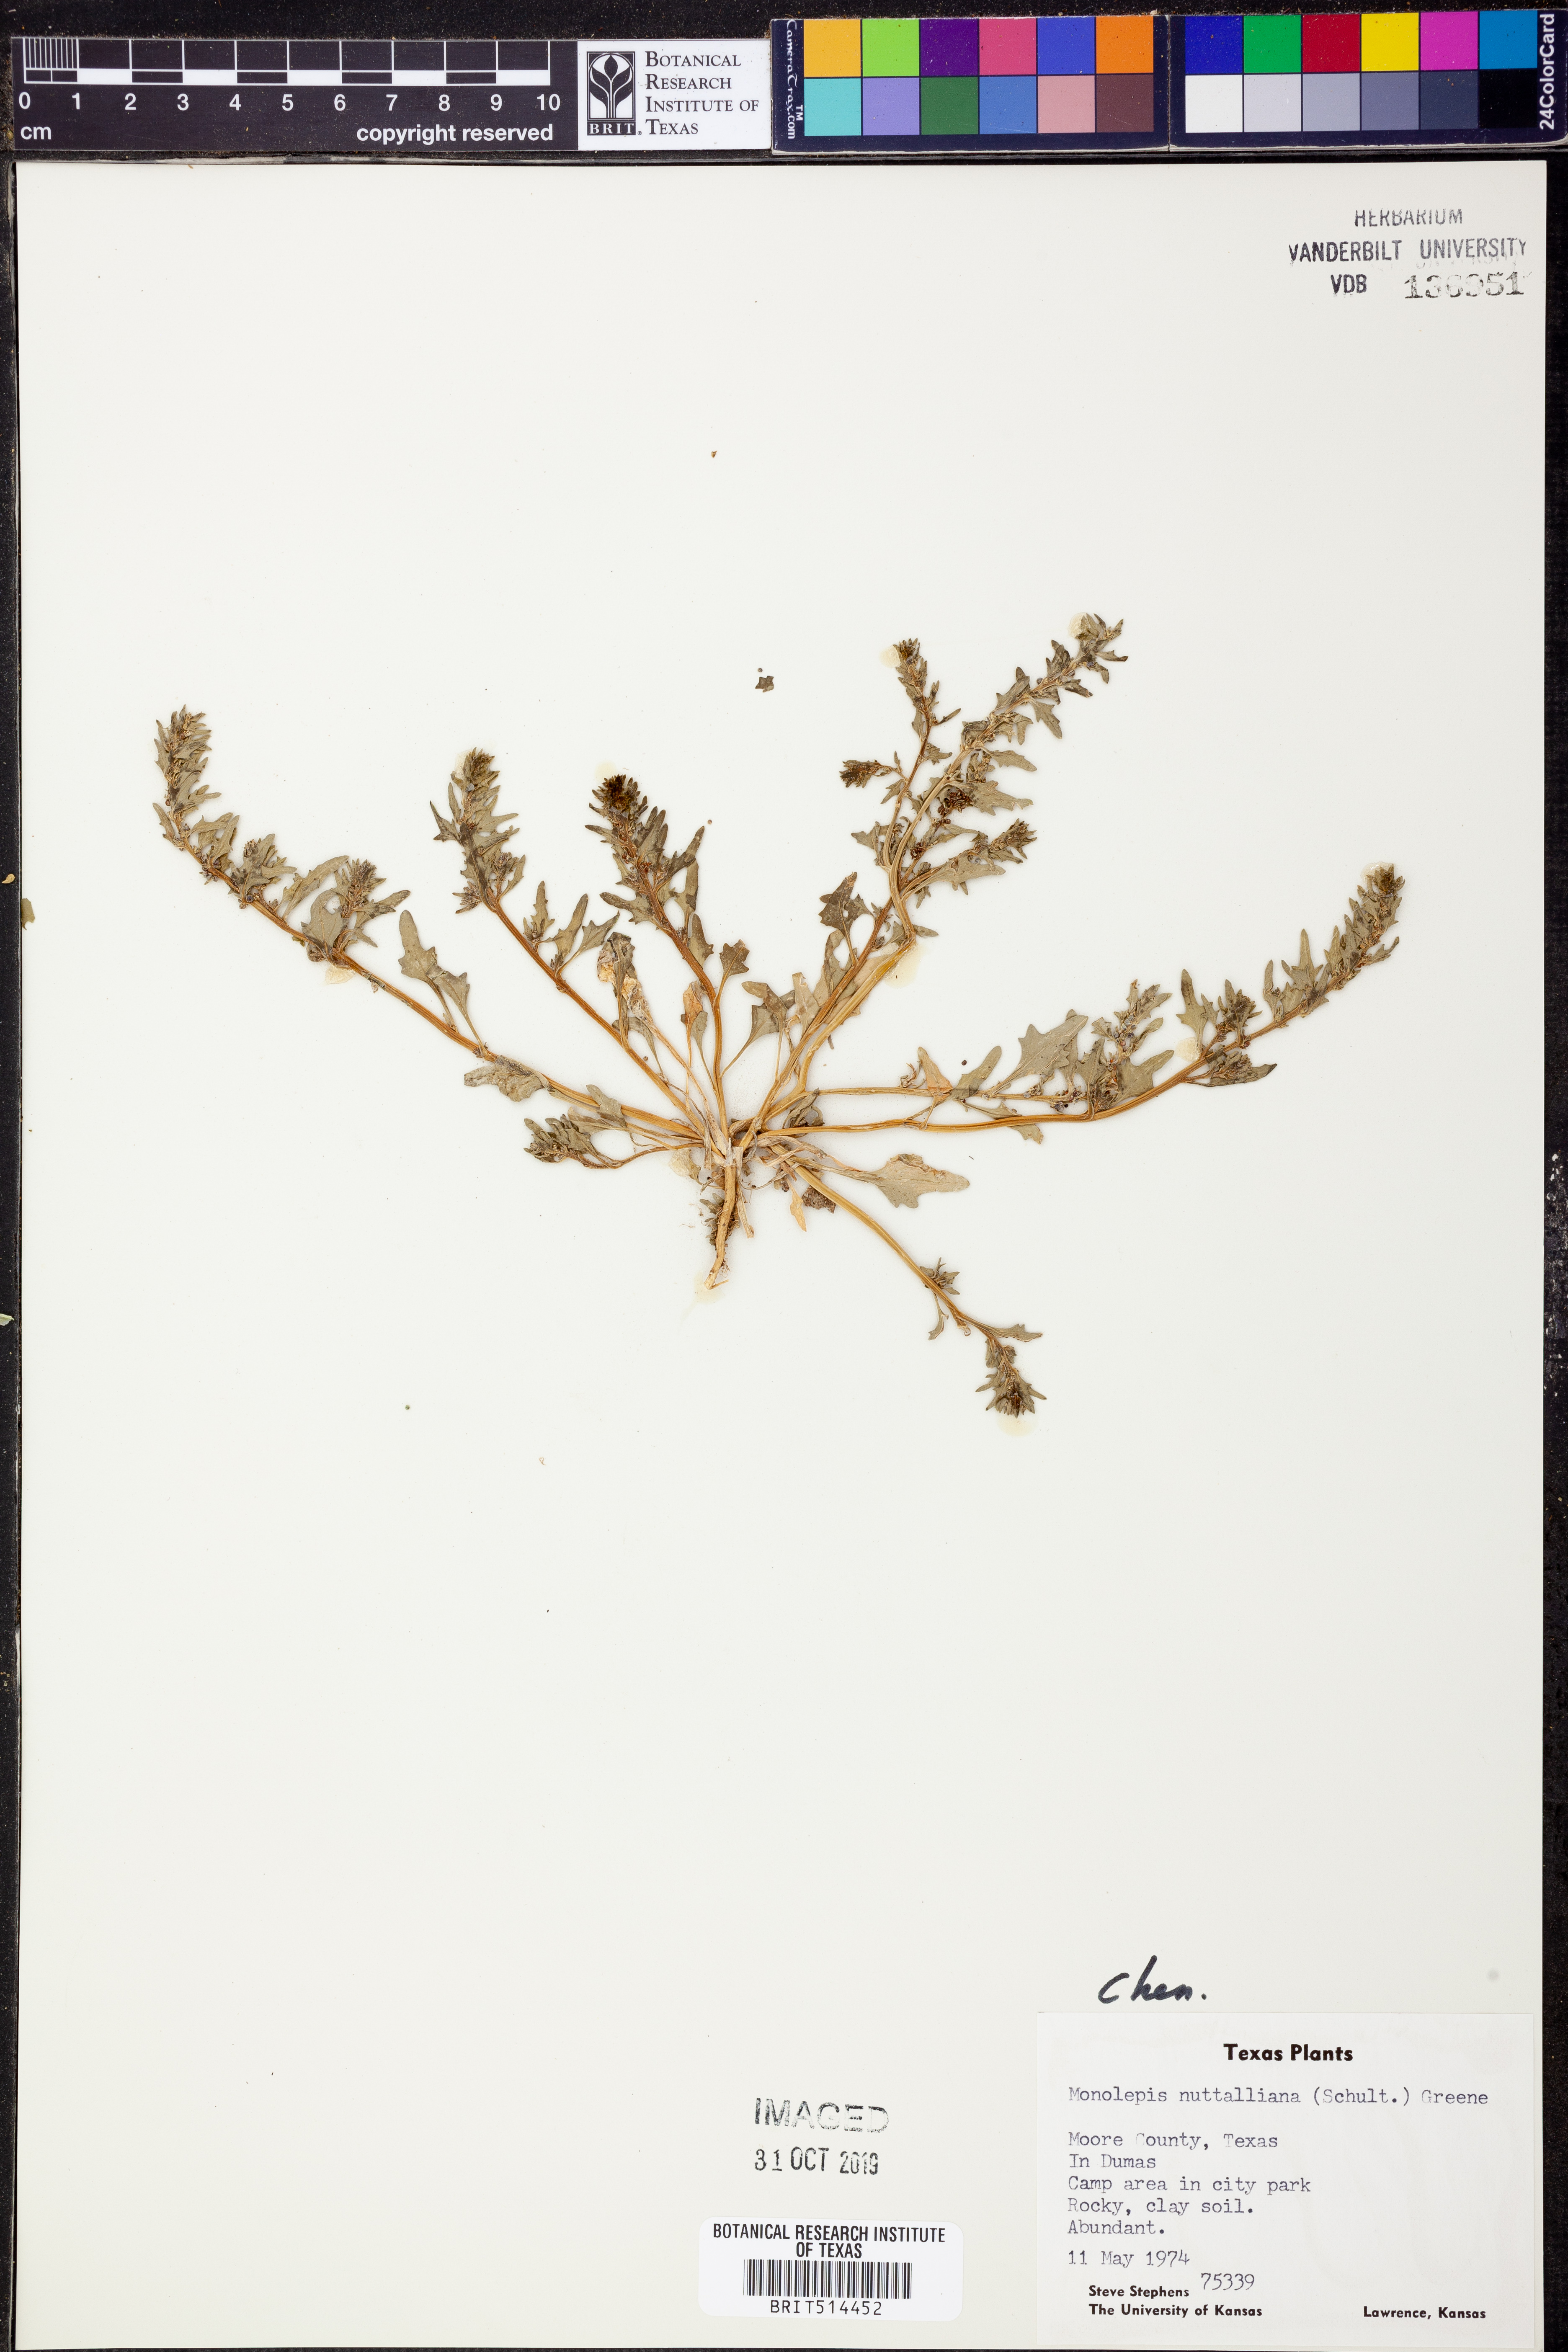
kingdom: Plantae
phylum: Tracheophyta
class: Magnoliopsida
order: Caryophyllales
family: Amaranthaceae
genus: Blitum
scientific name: Blitum nuttallianum
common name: Poverty-weed
